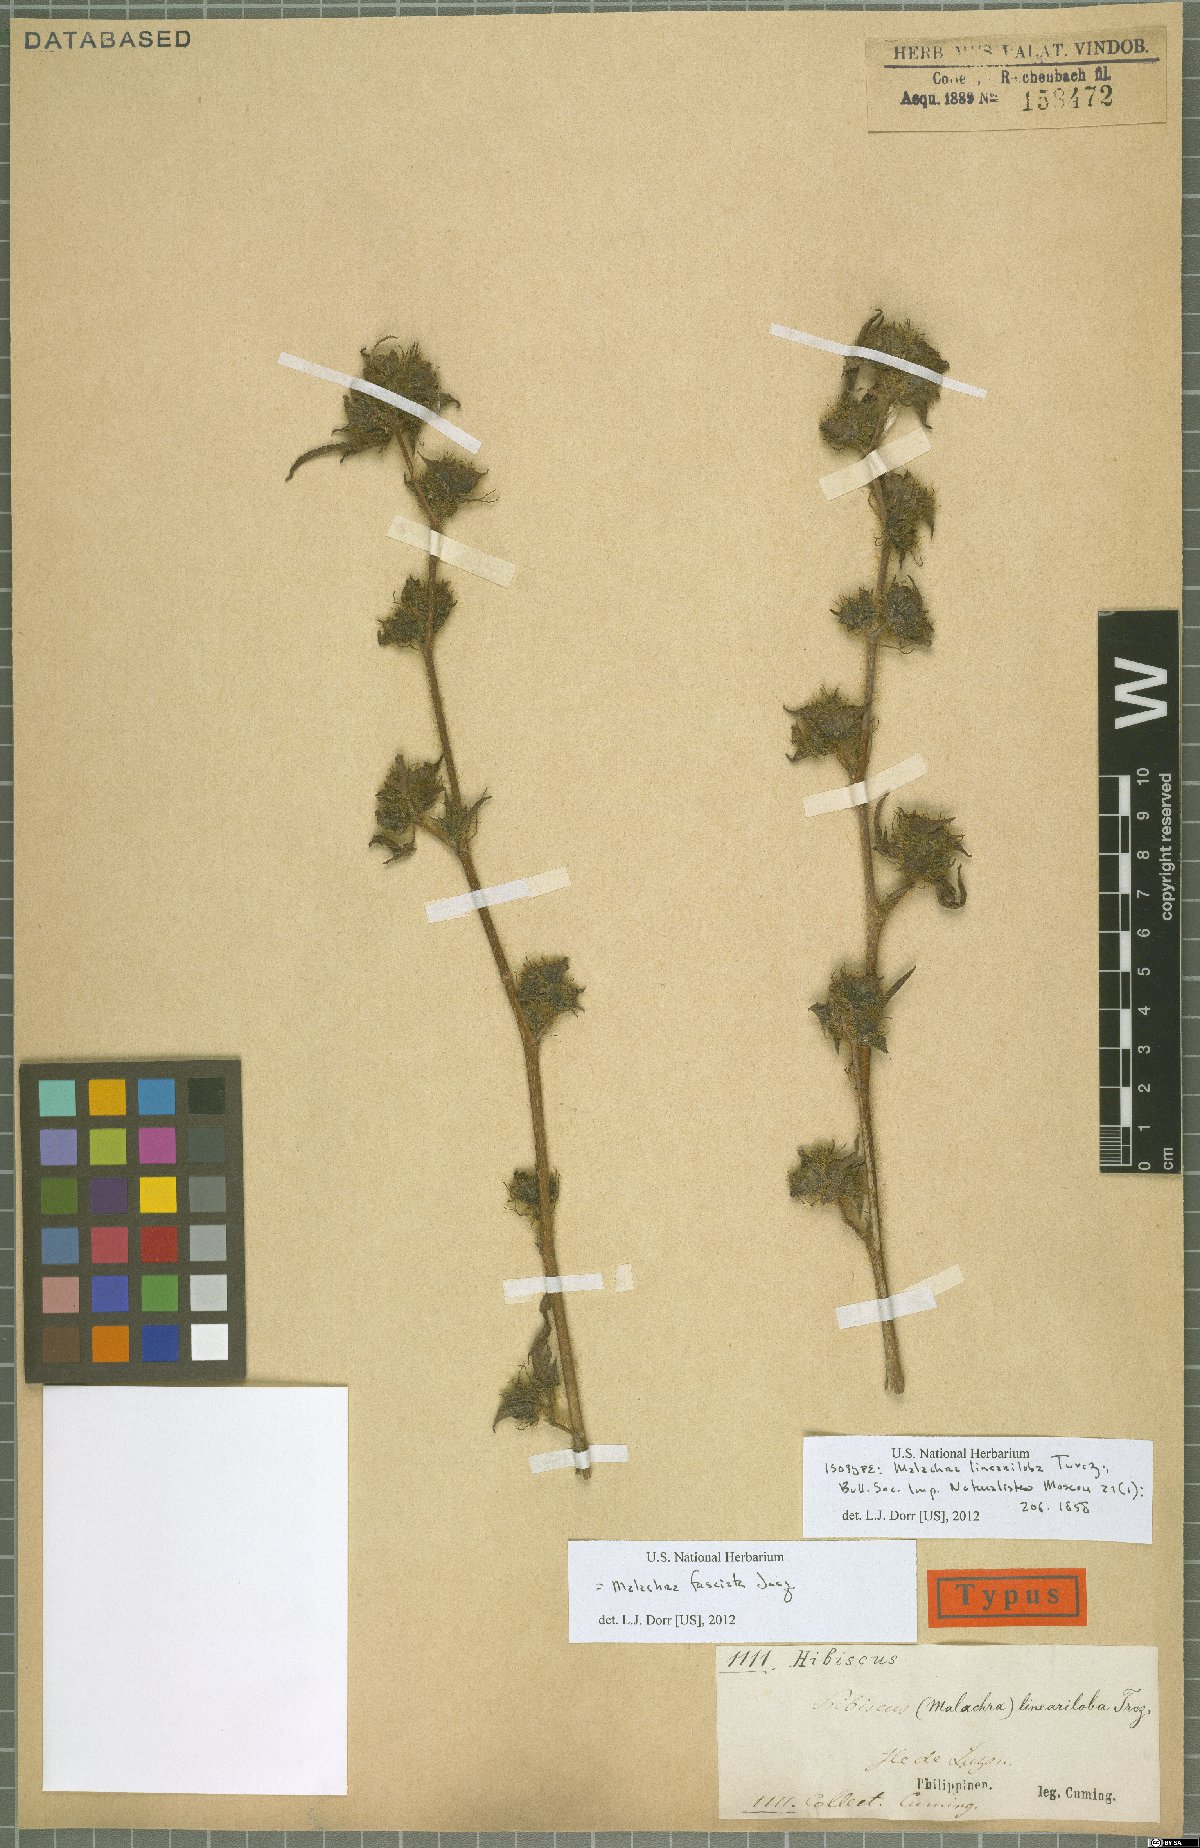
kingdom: Plantae
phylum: Tracheophyta
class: Magnoliopsida
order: Malvales
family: Malvaceae
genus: Malachra
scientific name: Malachra fasciata
